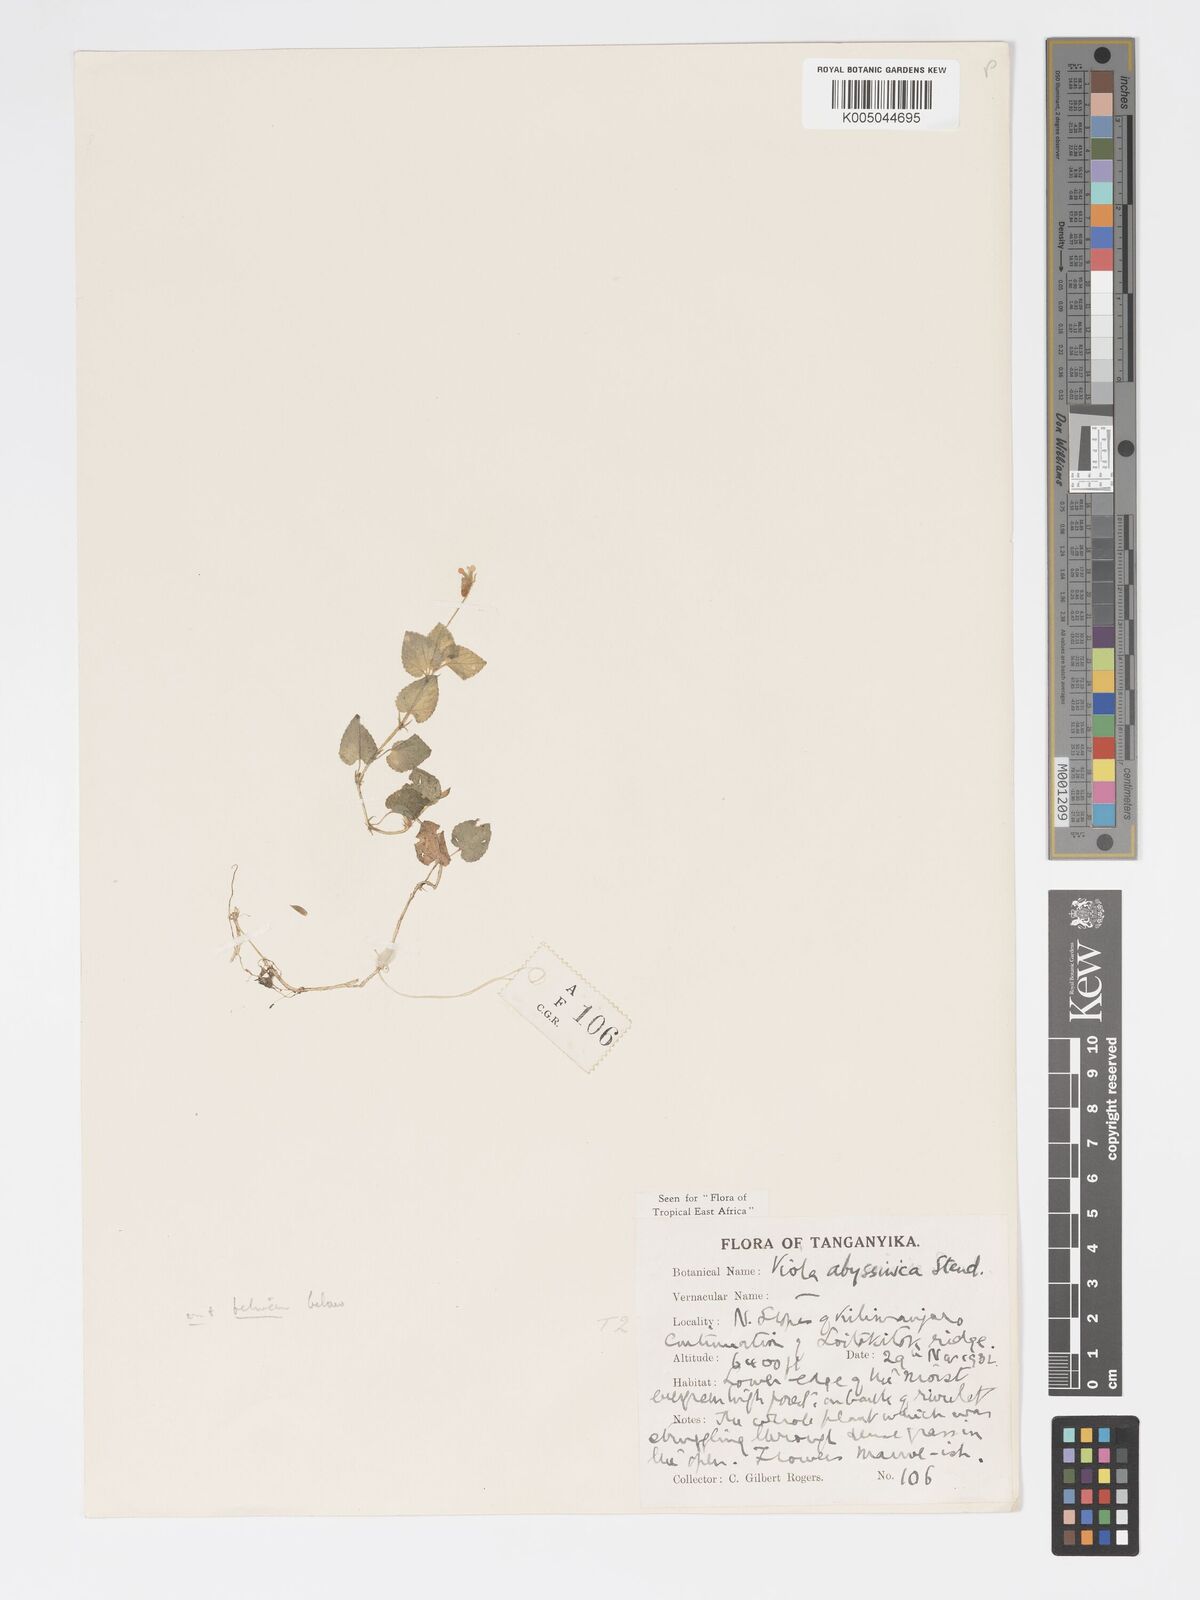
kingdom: Plantae
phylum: Tracheophyta
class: Magnoliopsida
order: Malpighiales
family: Violaceae
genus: Viola
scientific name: Viola abyssinica
